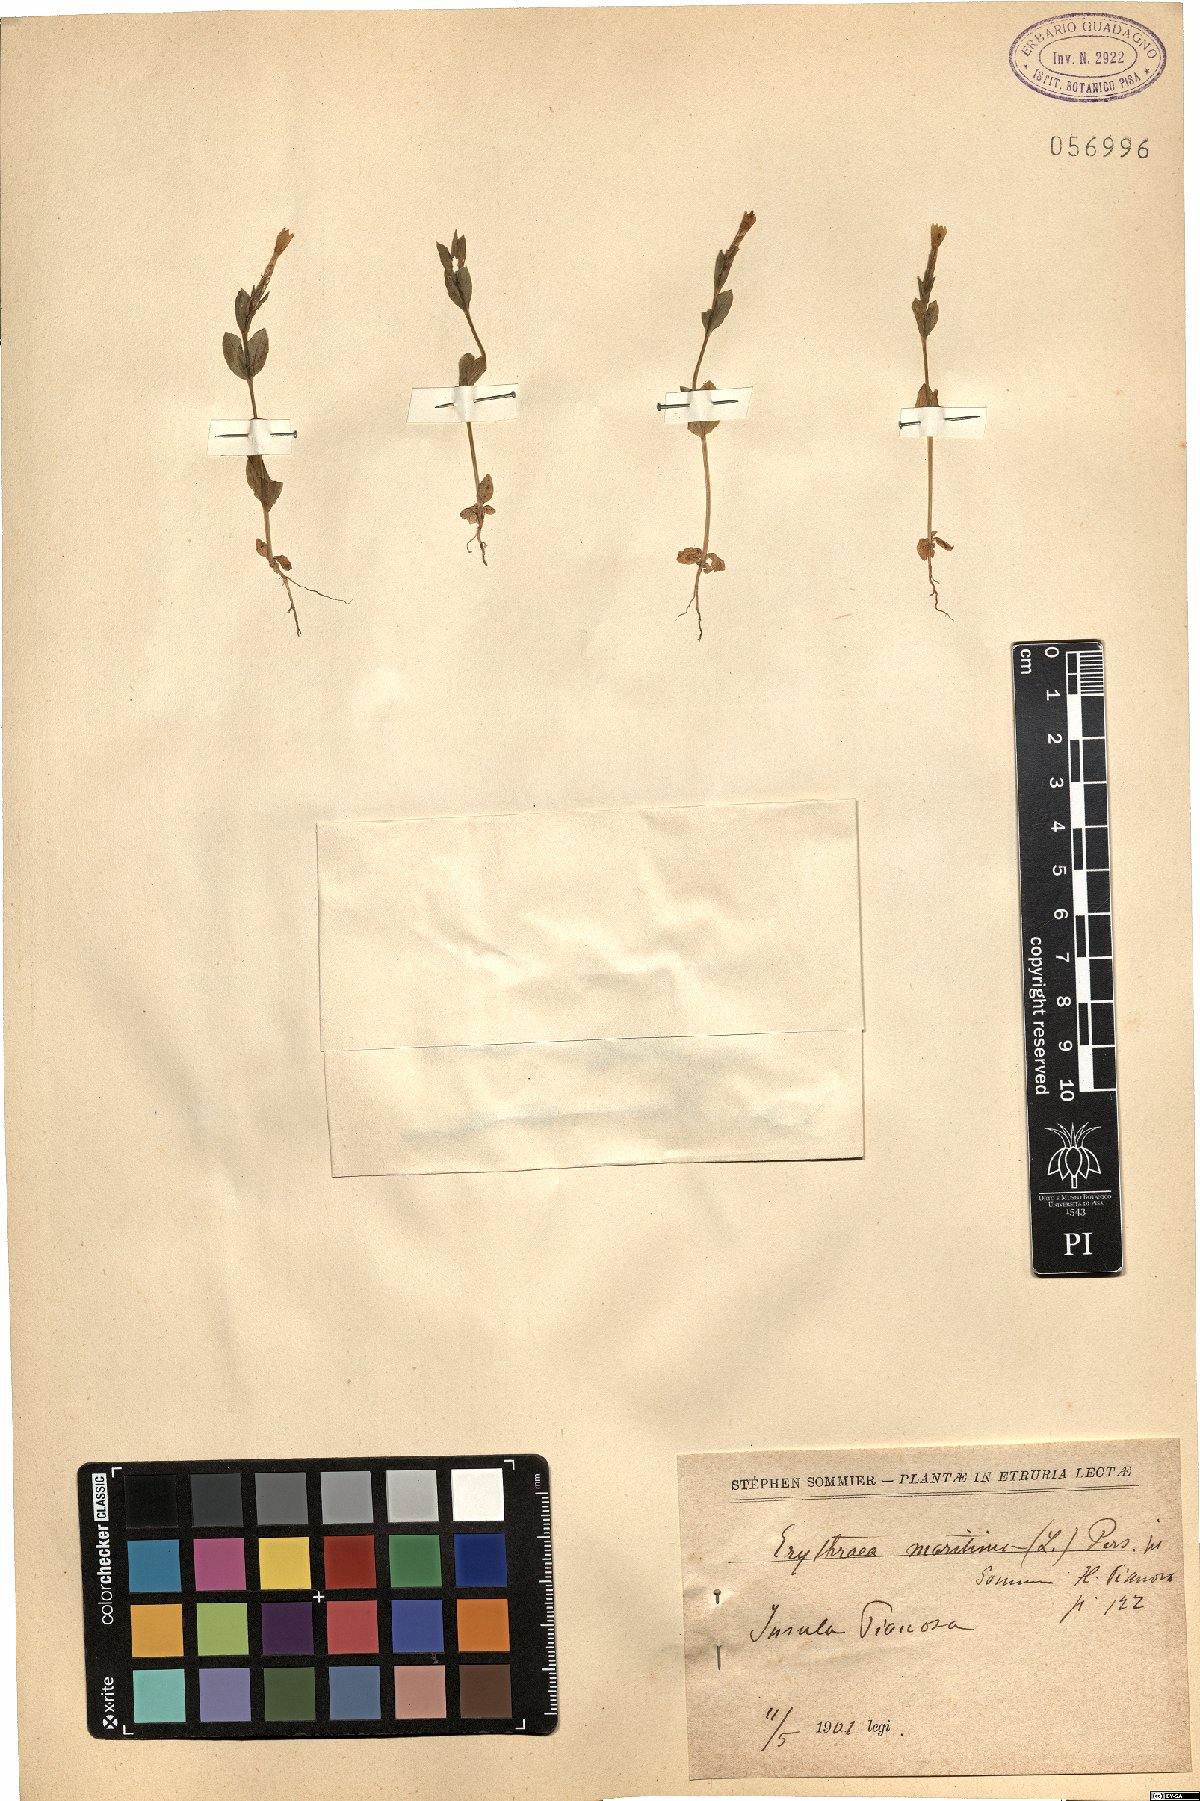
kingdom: Plantae
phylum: Tracheophyta
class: Magnoliopsida
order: Gentianales
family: Gentianaceae
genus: Centaurium
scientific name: Centaurium maritimum
